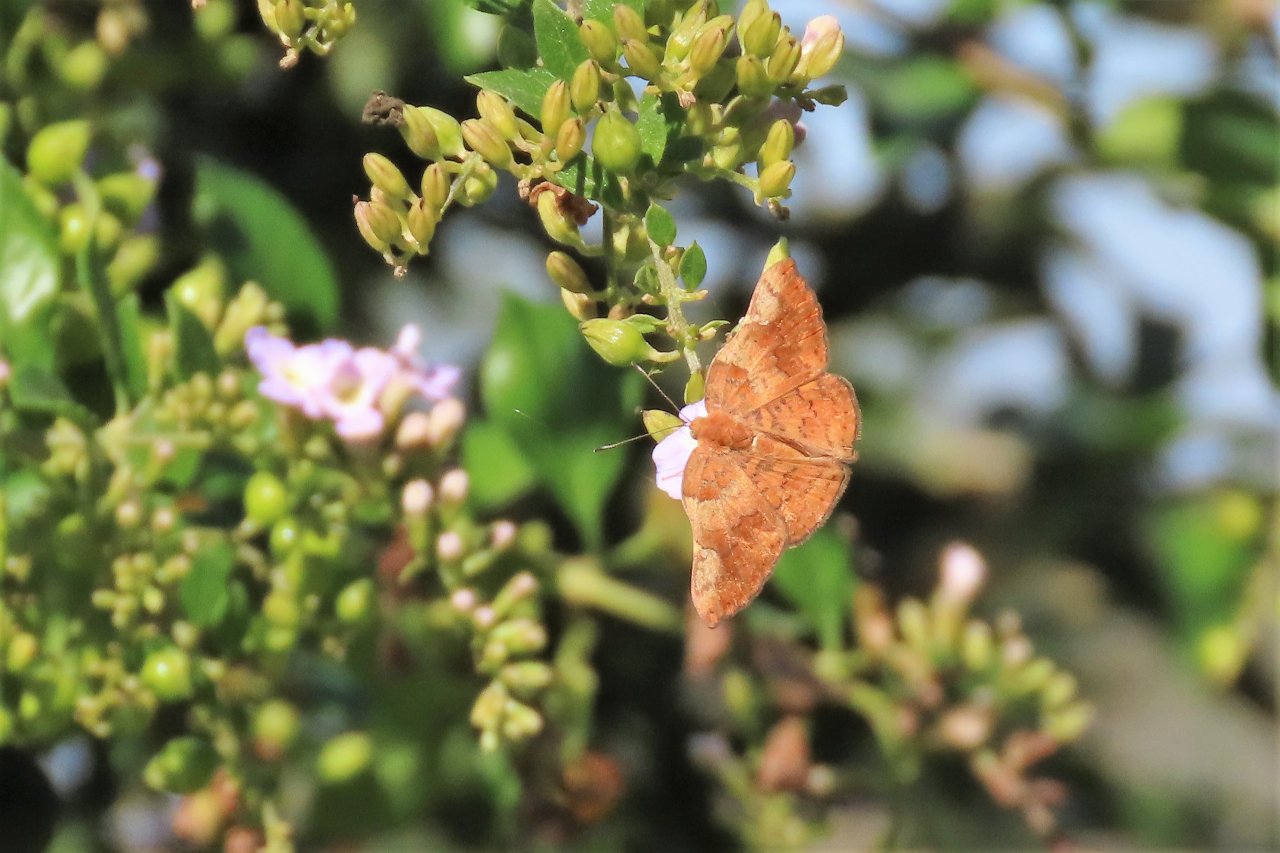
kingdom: Animalia
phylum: Arthropoda
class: Insecta
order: Lepidoptera
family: Lycaenidae
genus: Emesis
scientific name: Emesis emesia
